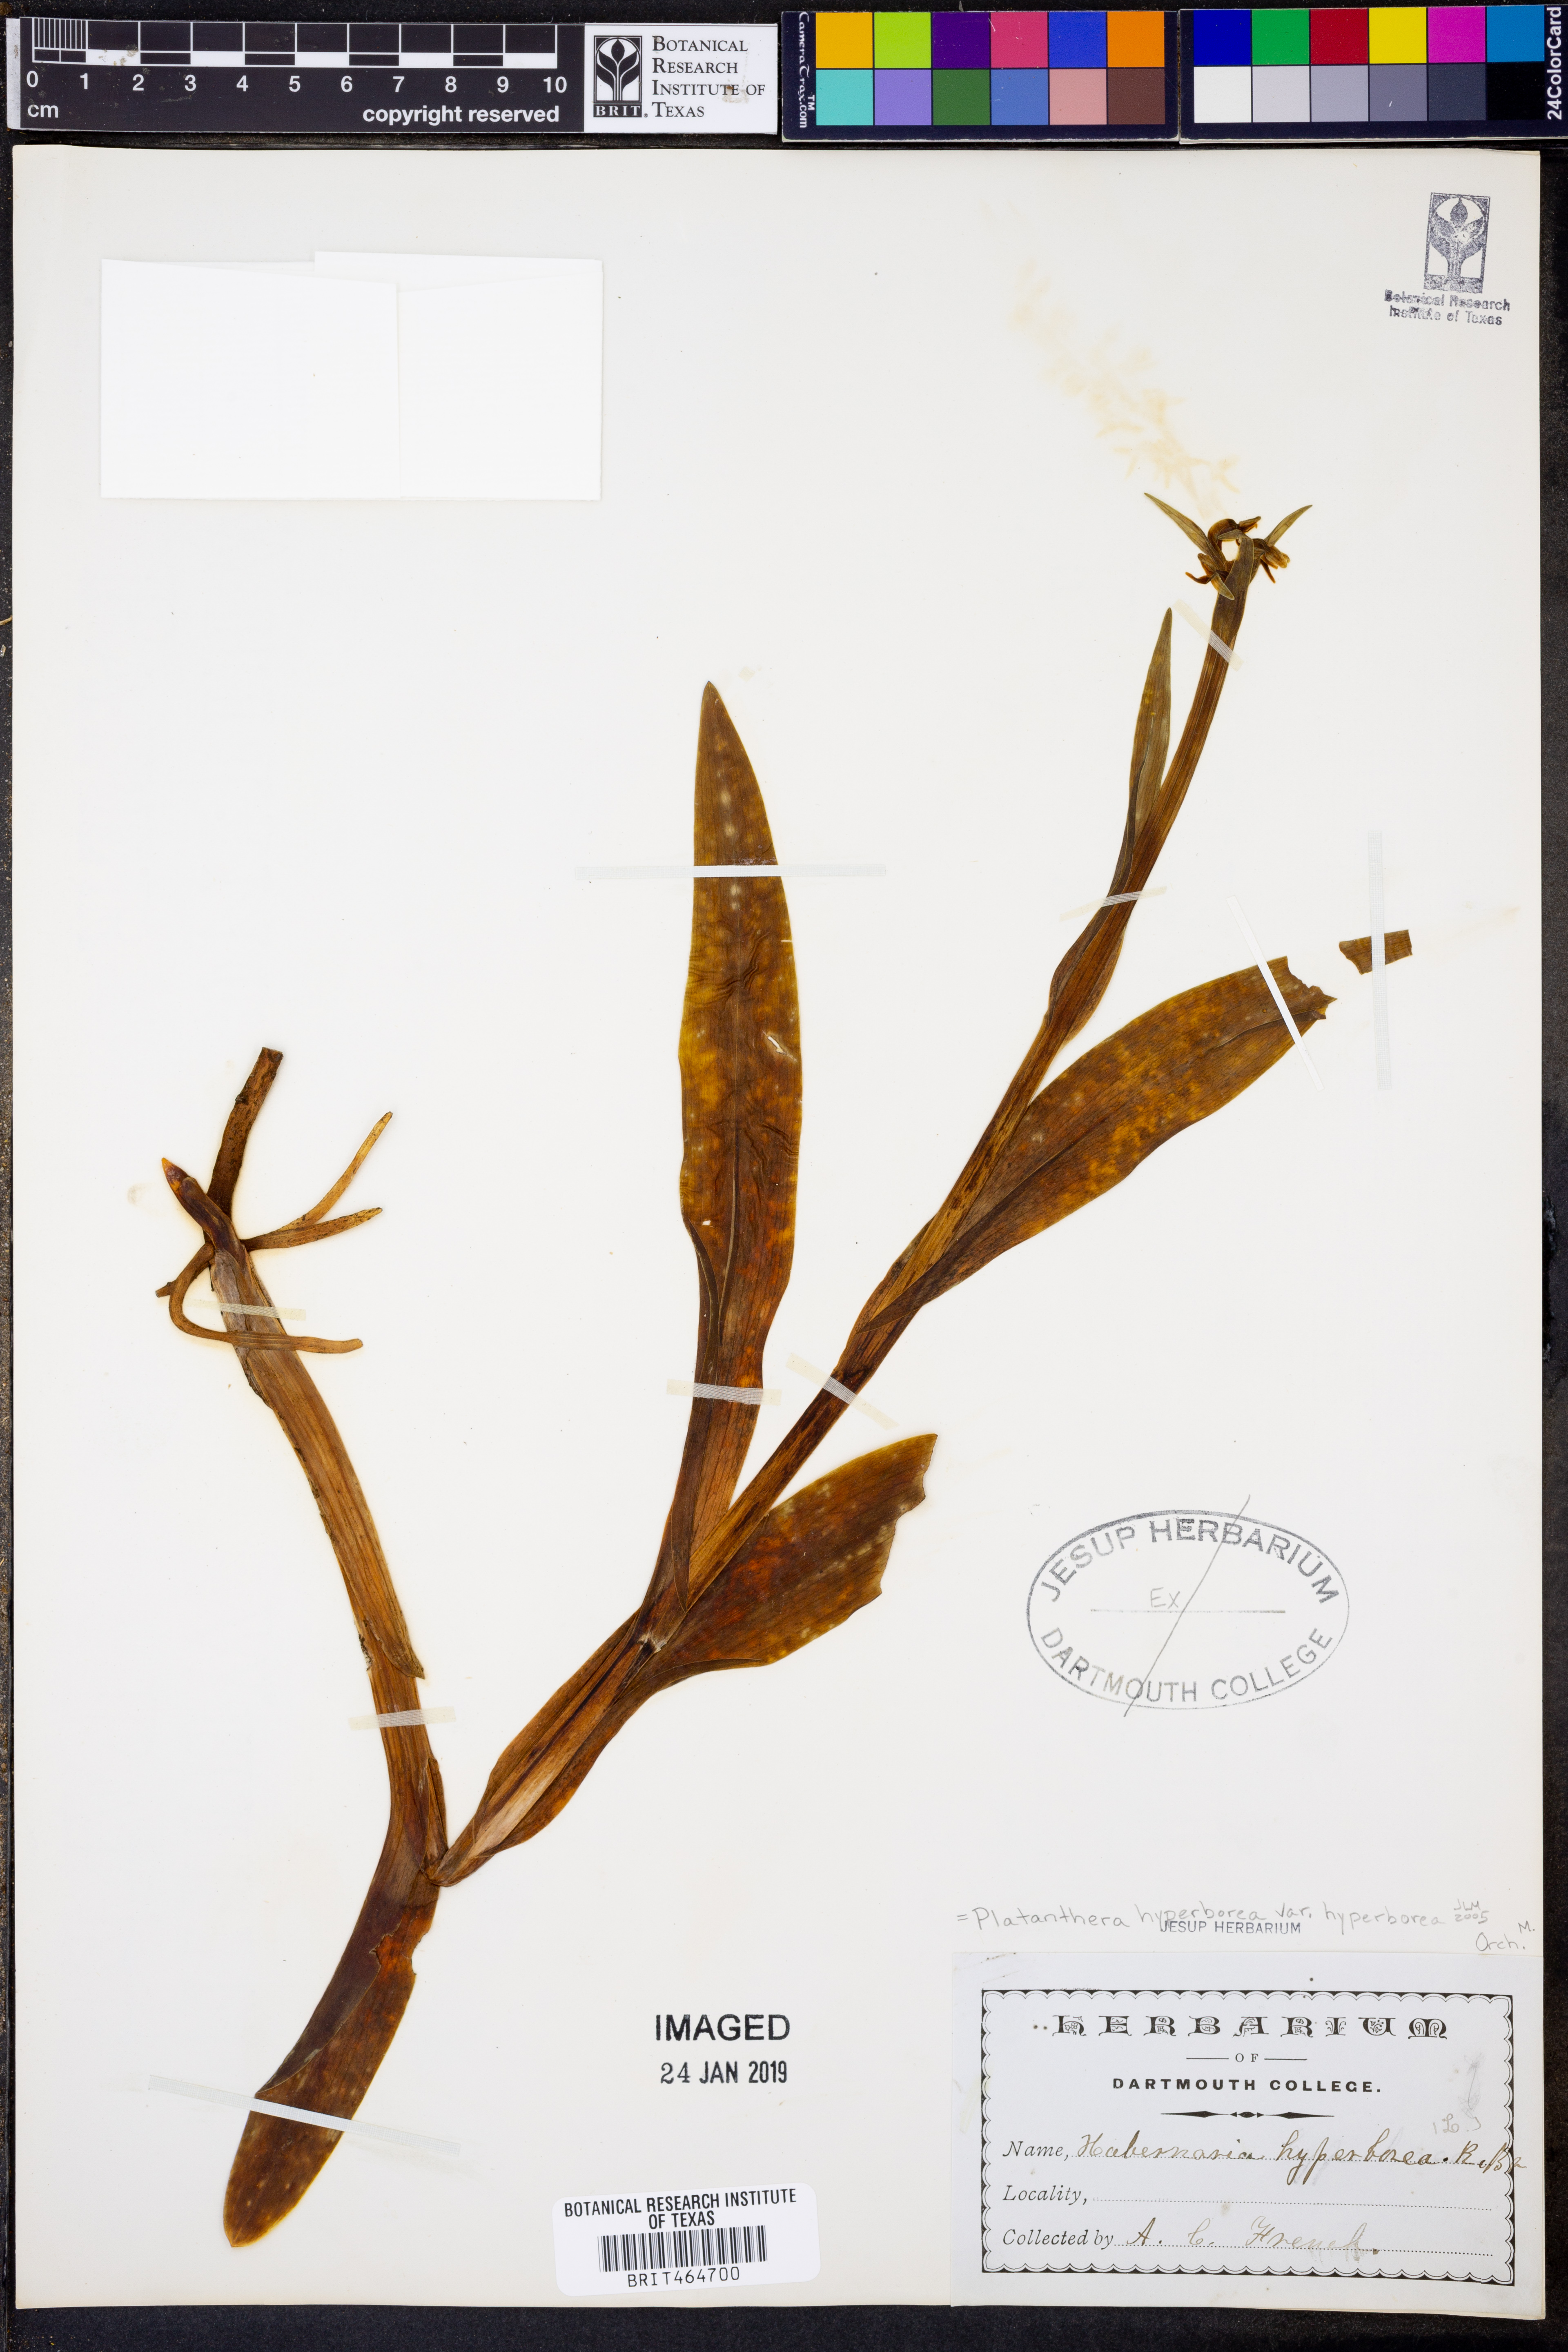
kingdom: Plantae
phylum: Tracheophyta
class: Liliopsida
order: Asparagales
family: Orchidaceae
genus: Platanthera
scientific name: Platanthera hyperborea
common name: Northern green orchid
